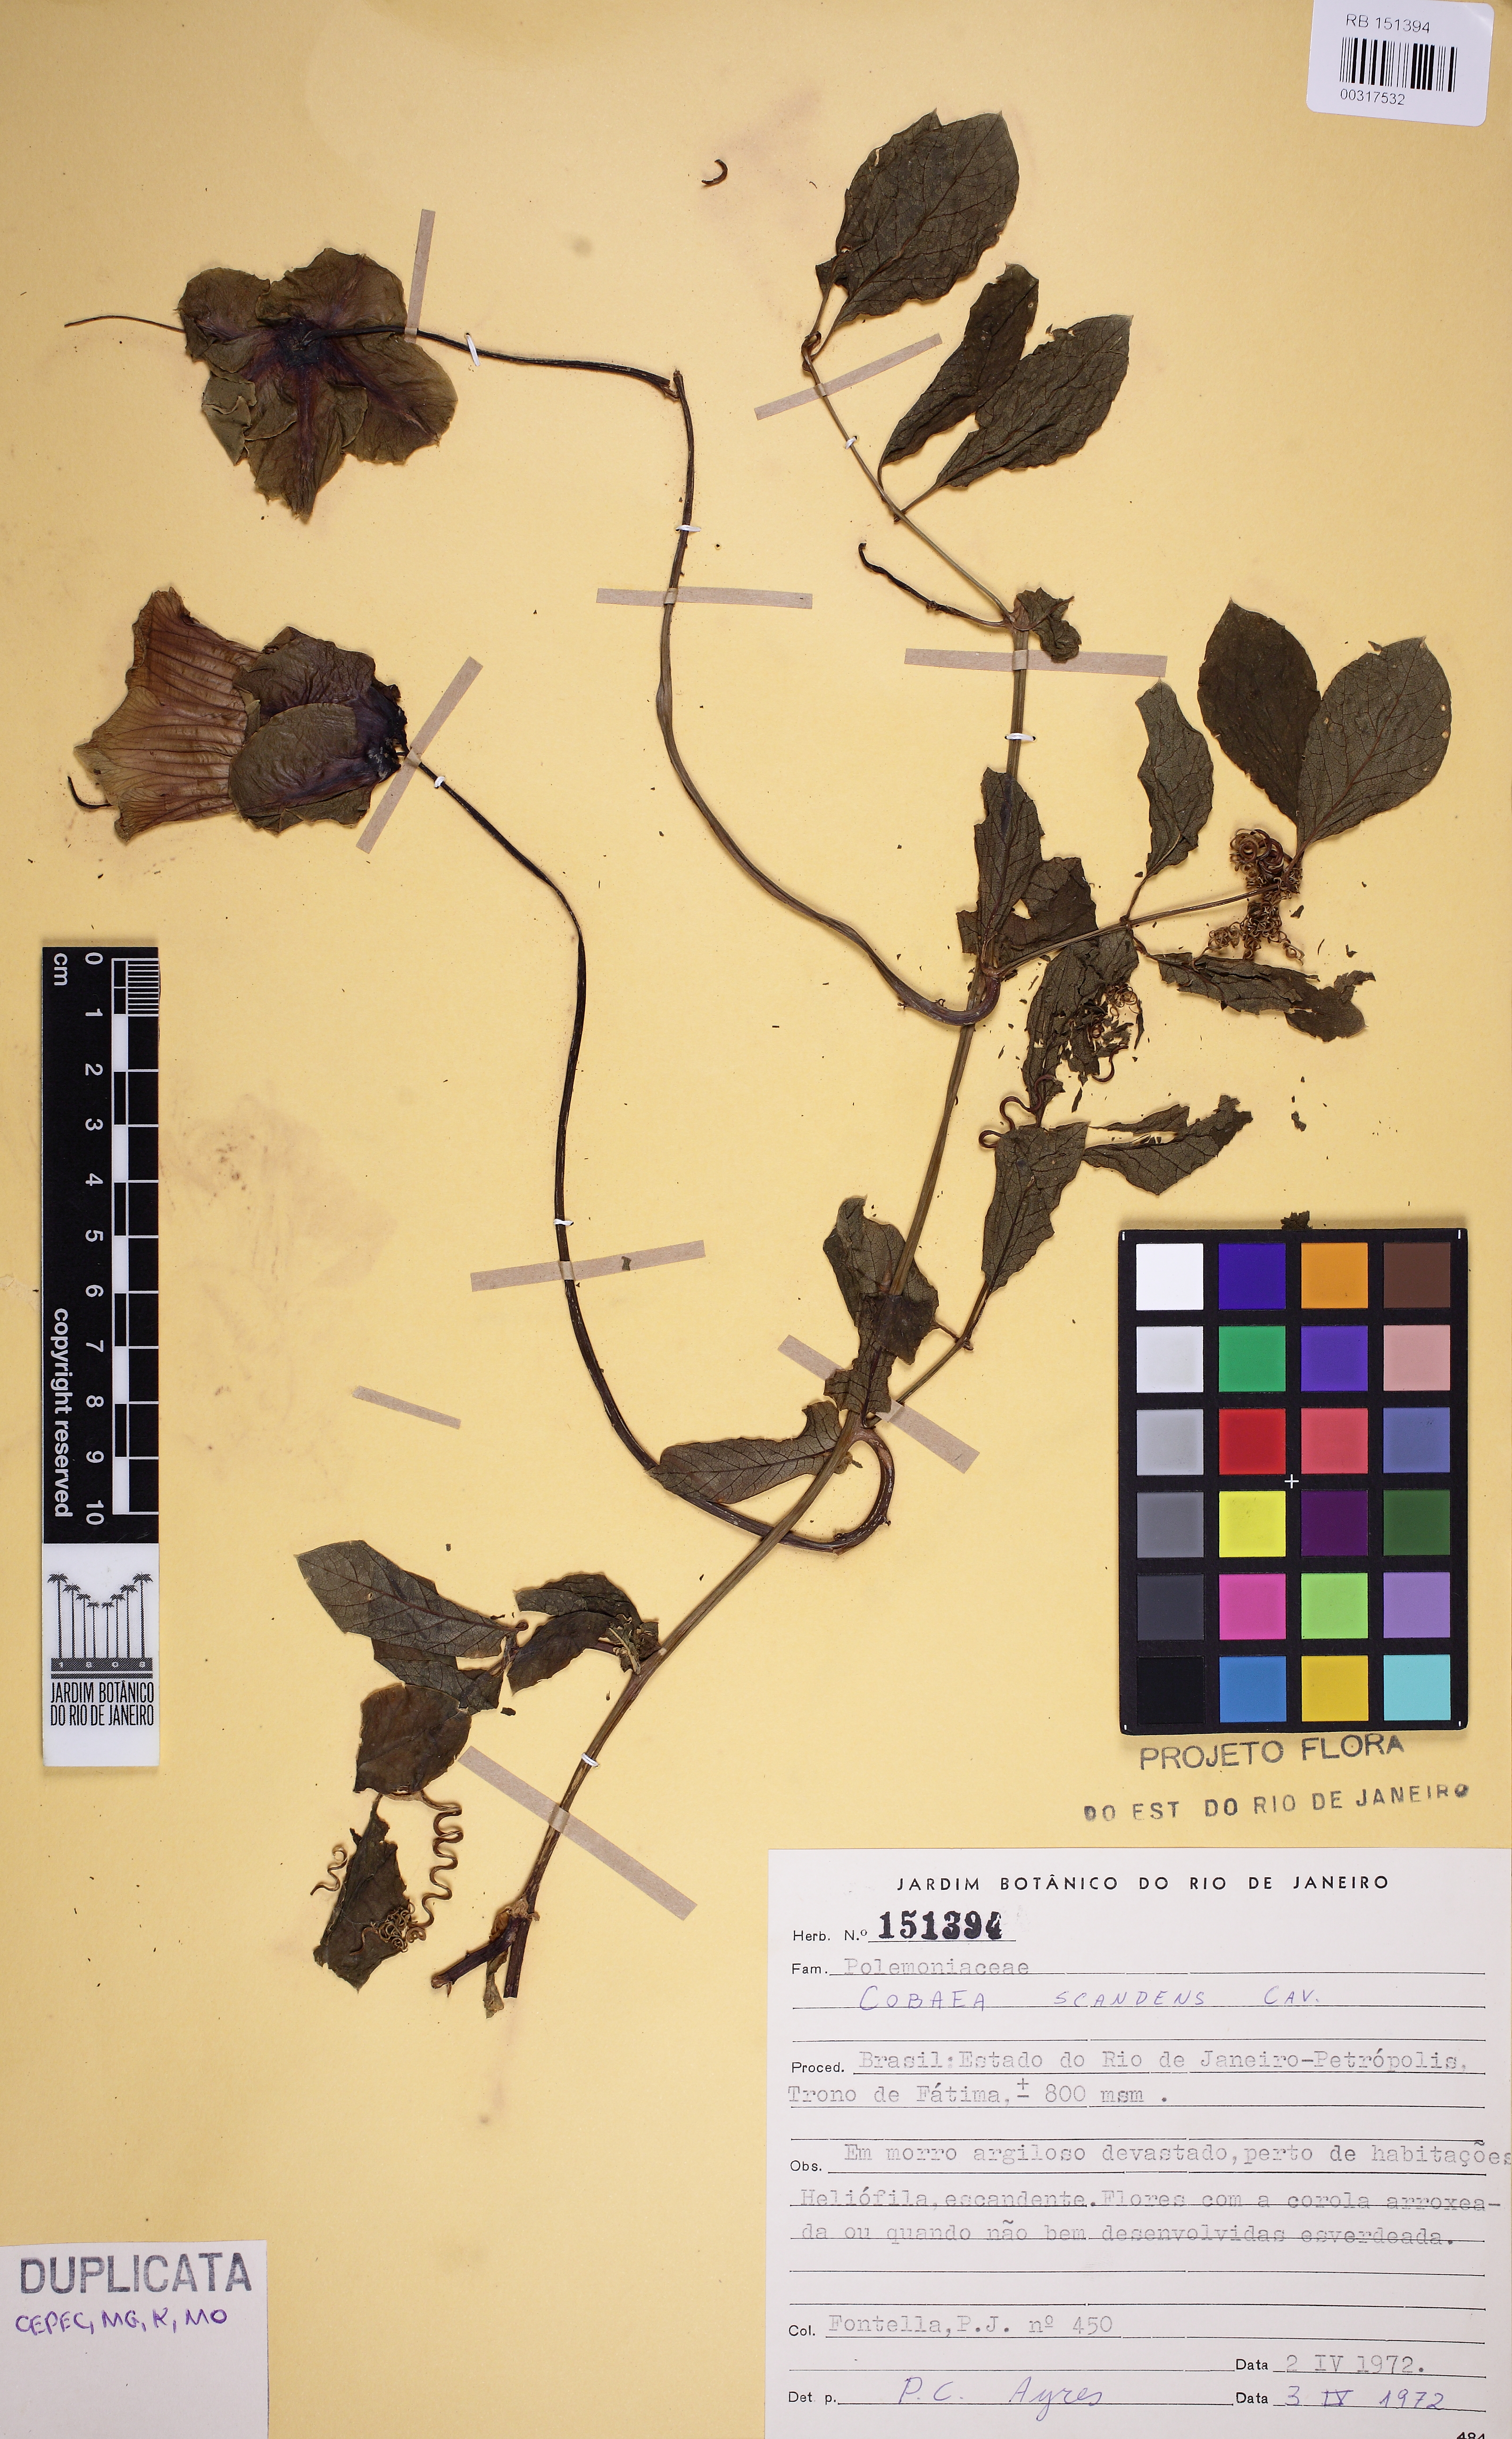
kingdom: Plantae
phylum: Tracheophyta
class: Magnoliopsida
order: Ericales
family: Polemoniaceae
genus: Cobaea
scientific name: Cobaea scandens
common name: Cup-and-saucer-vine
